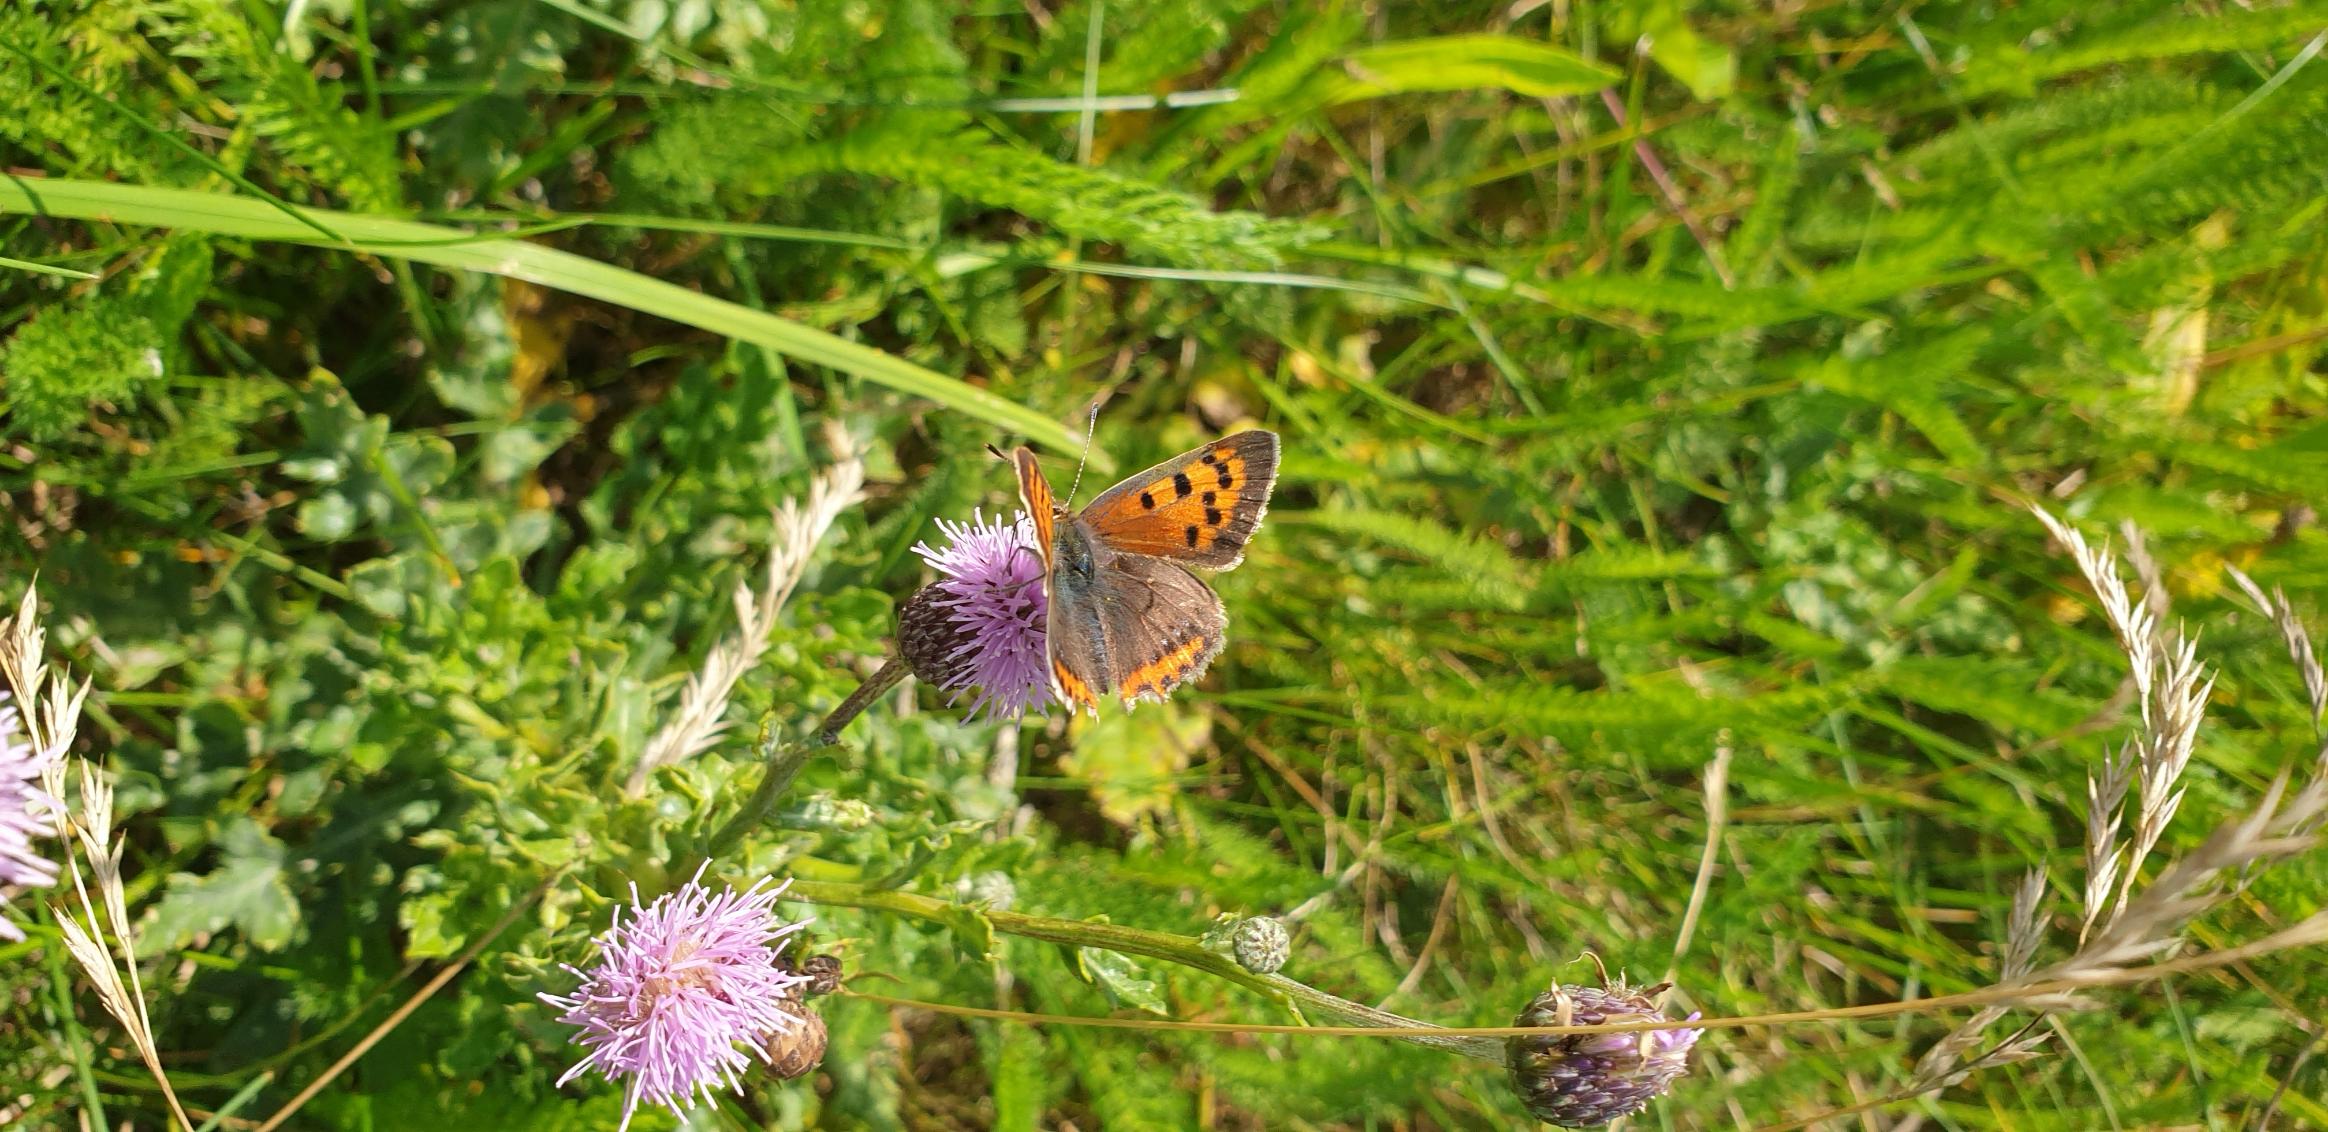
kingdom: Animalia
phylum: Arthropoda
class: Insecta
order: Lepidoptera
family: Lycaenidae
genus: Lycaena
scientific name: Lycaena phlaeas
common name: Lille ildfugl
